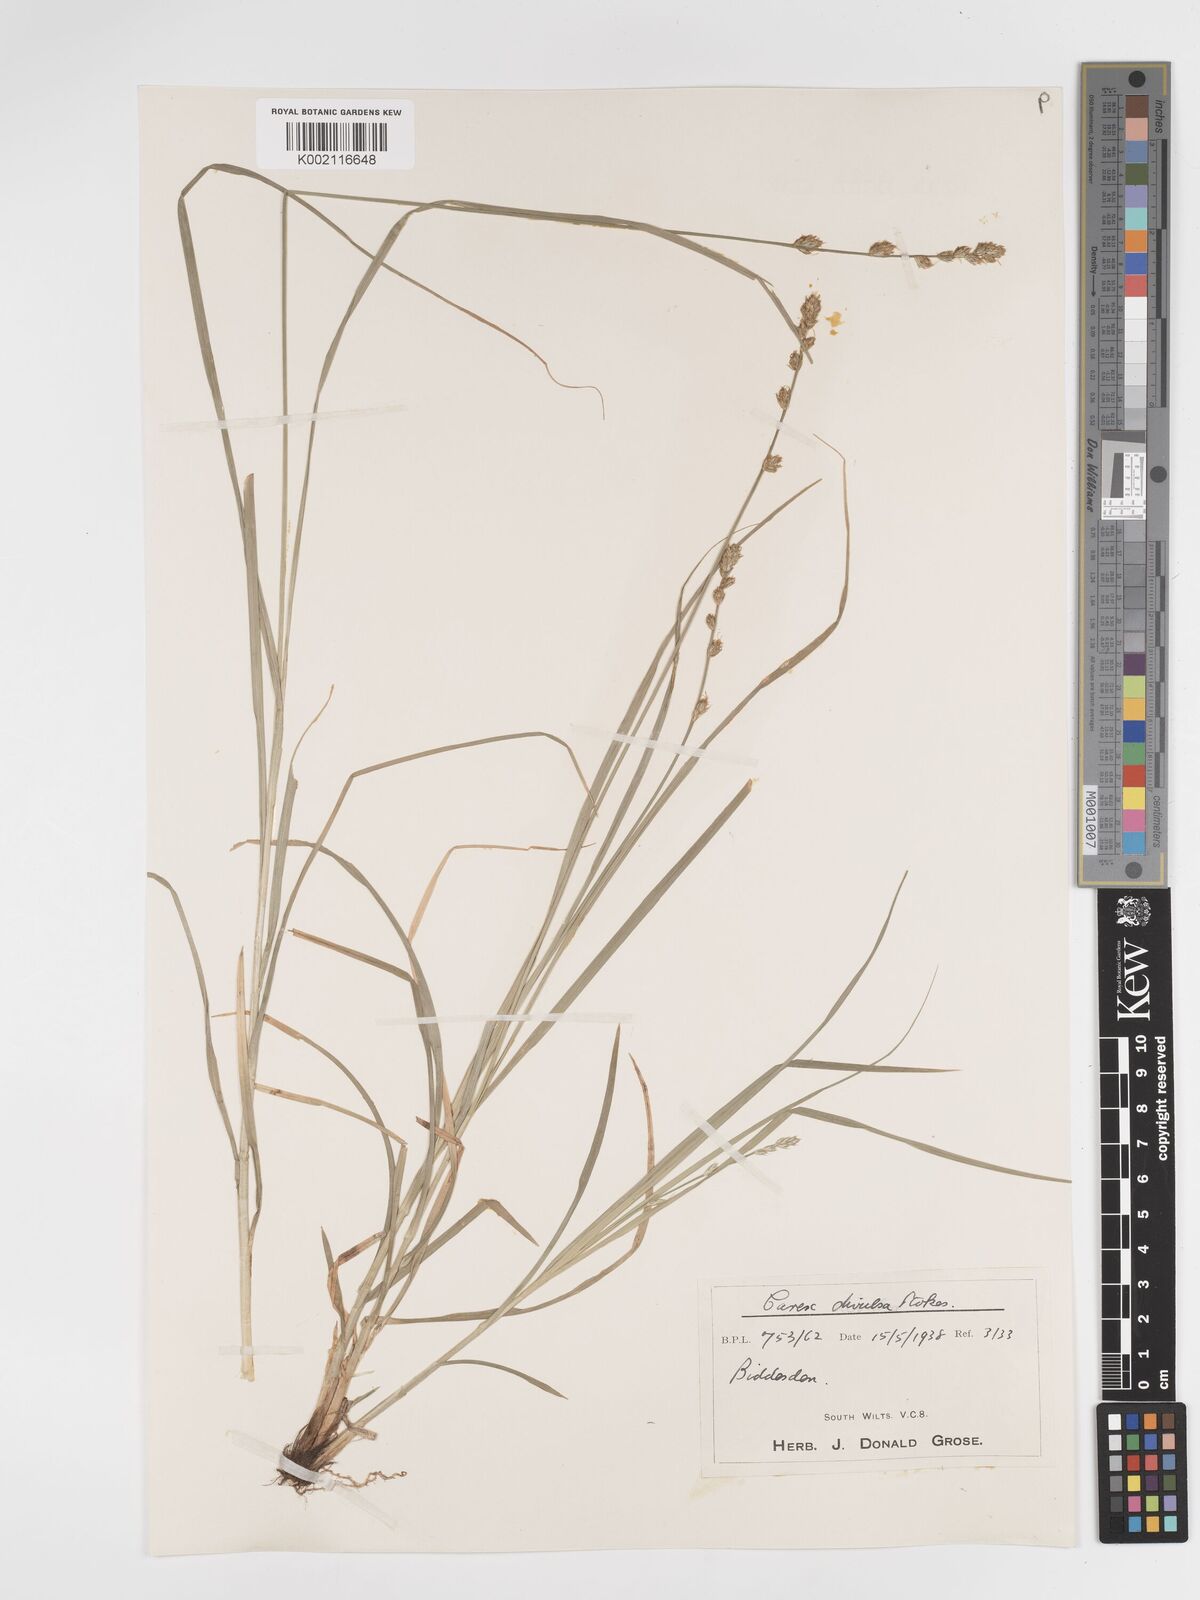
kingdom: Plantae
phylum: Tracheophyta
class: Liliopsida
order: Poales
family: Cyperaceae
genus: Carex
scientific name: Carex divulsa
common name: Grassland sedge
